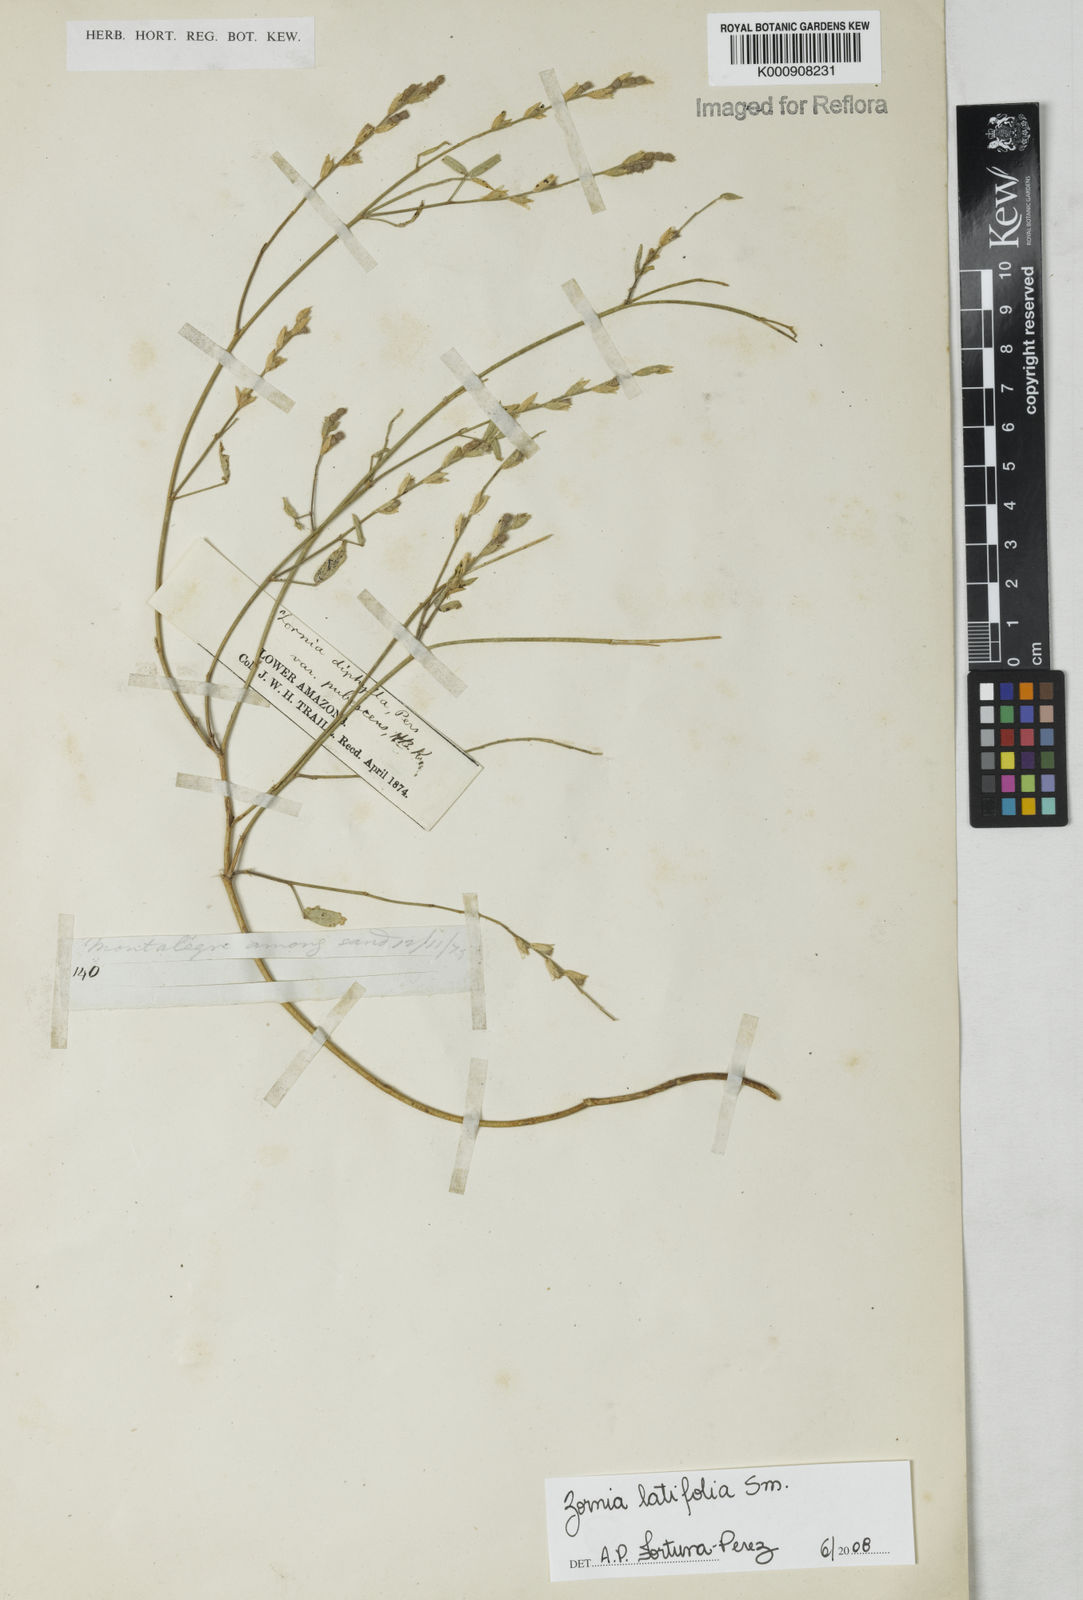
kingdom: Plantae
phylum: Tracheophyta
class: Magnoliopsida
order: Fabales
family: Fabaceae
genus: Zornia
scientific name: Zornia
